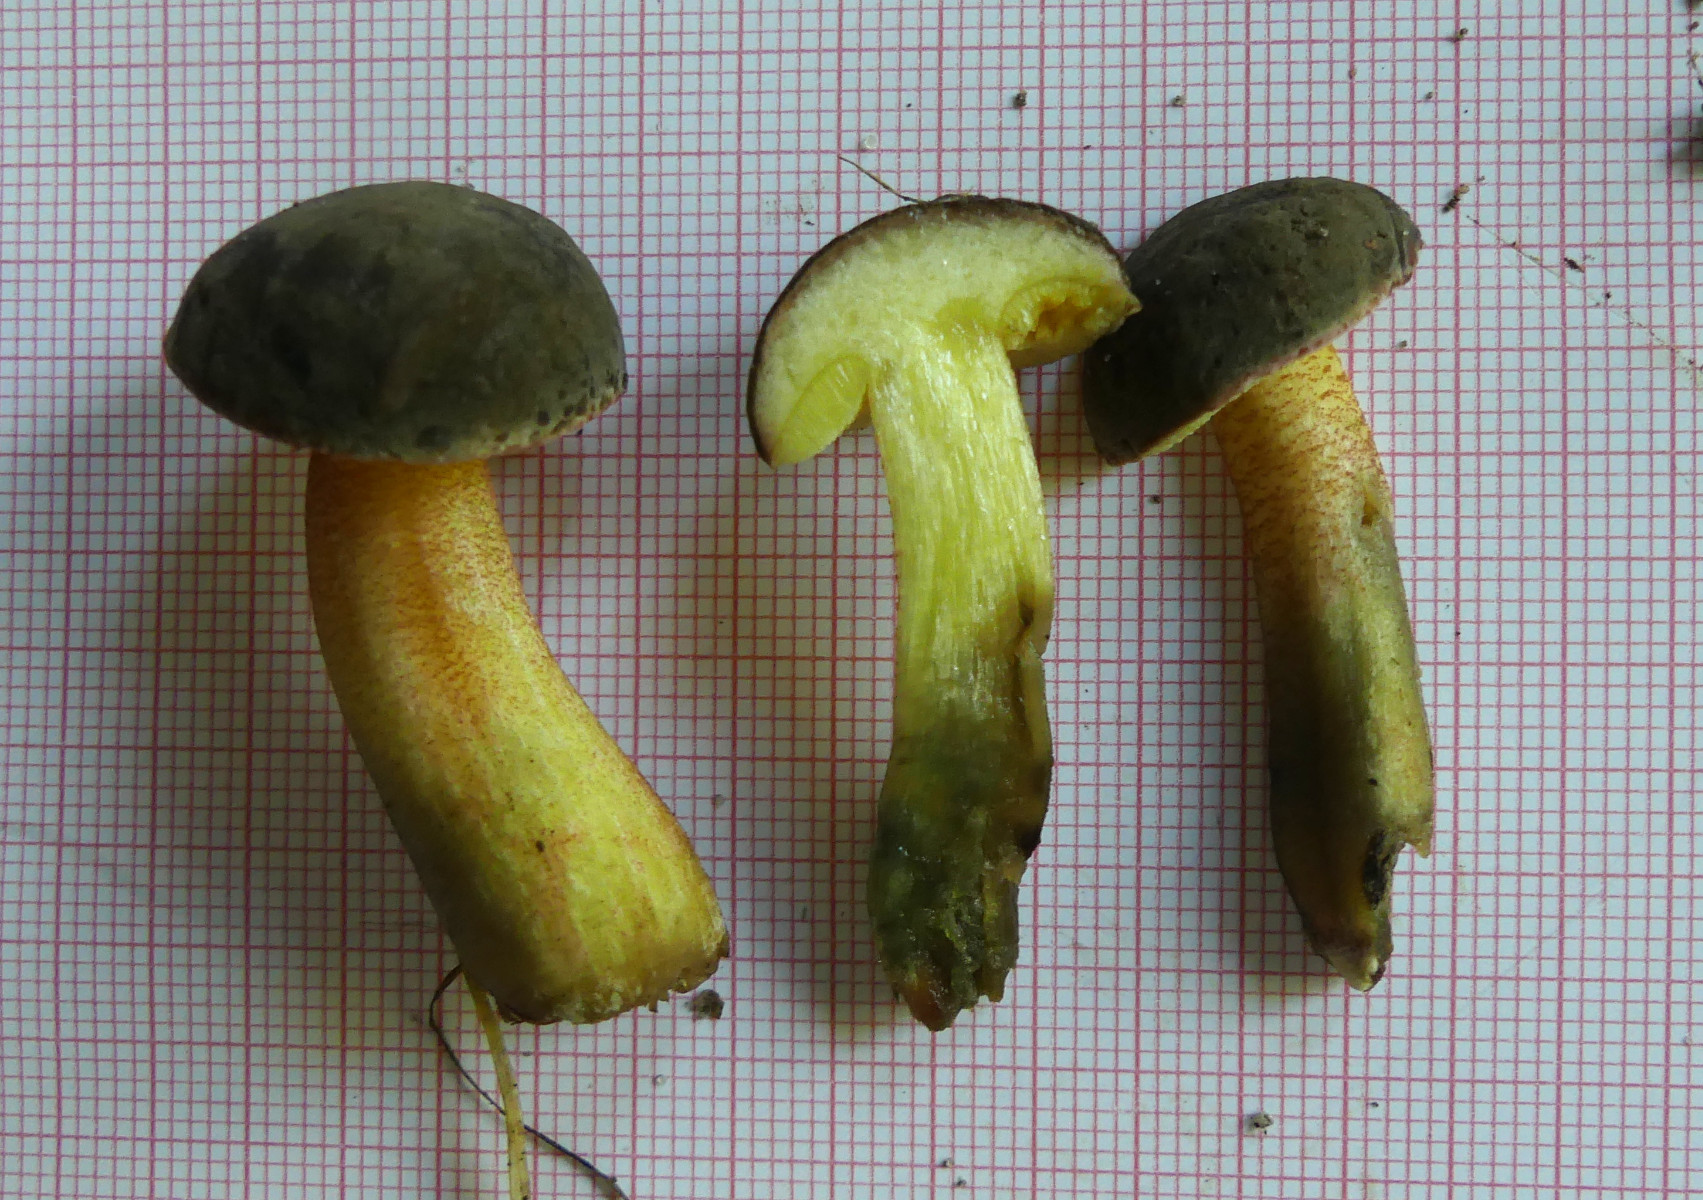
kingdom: Fungi
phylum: Basidiomycota
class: Agaricomycetes
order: Boletales
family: Boletaceae
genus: Xerocomellus
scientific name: Xerocomellus cisalpinus
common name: finsprukken rørhat
